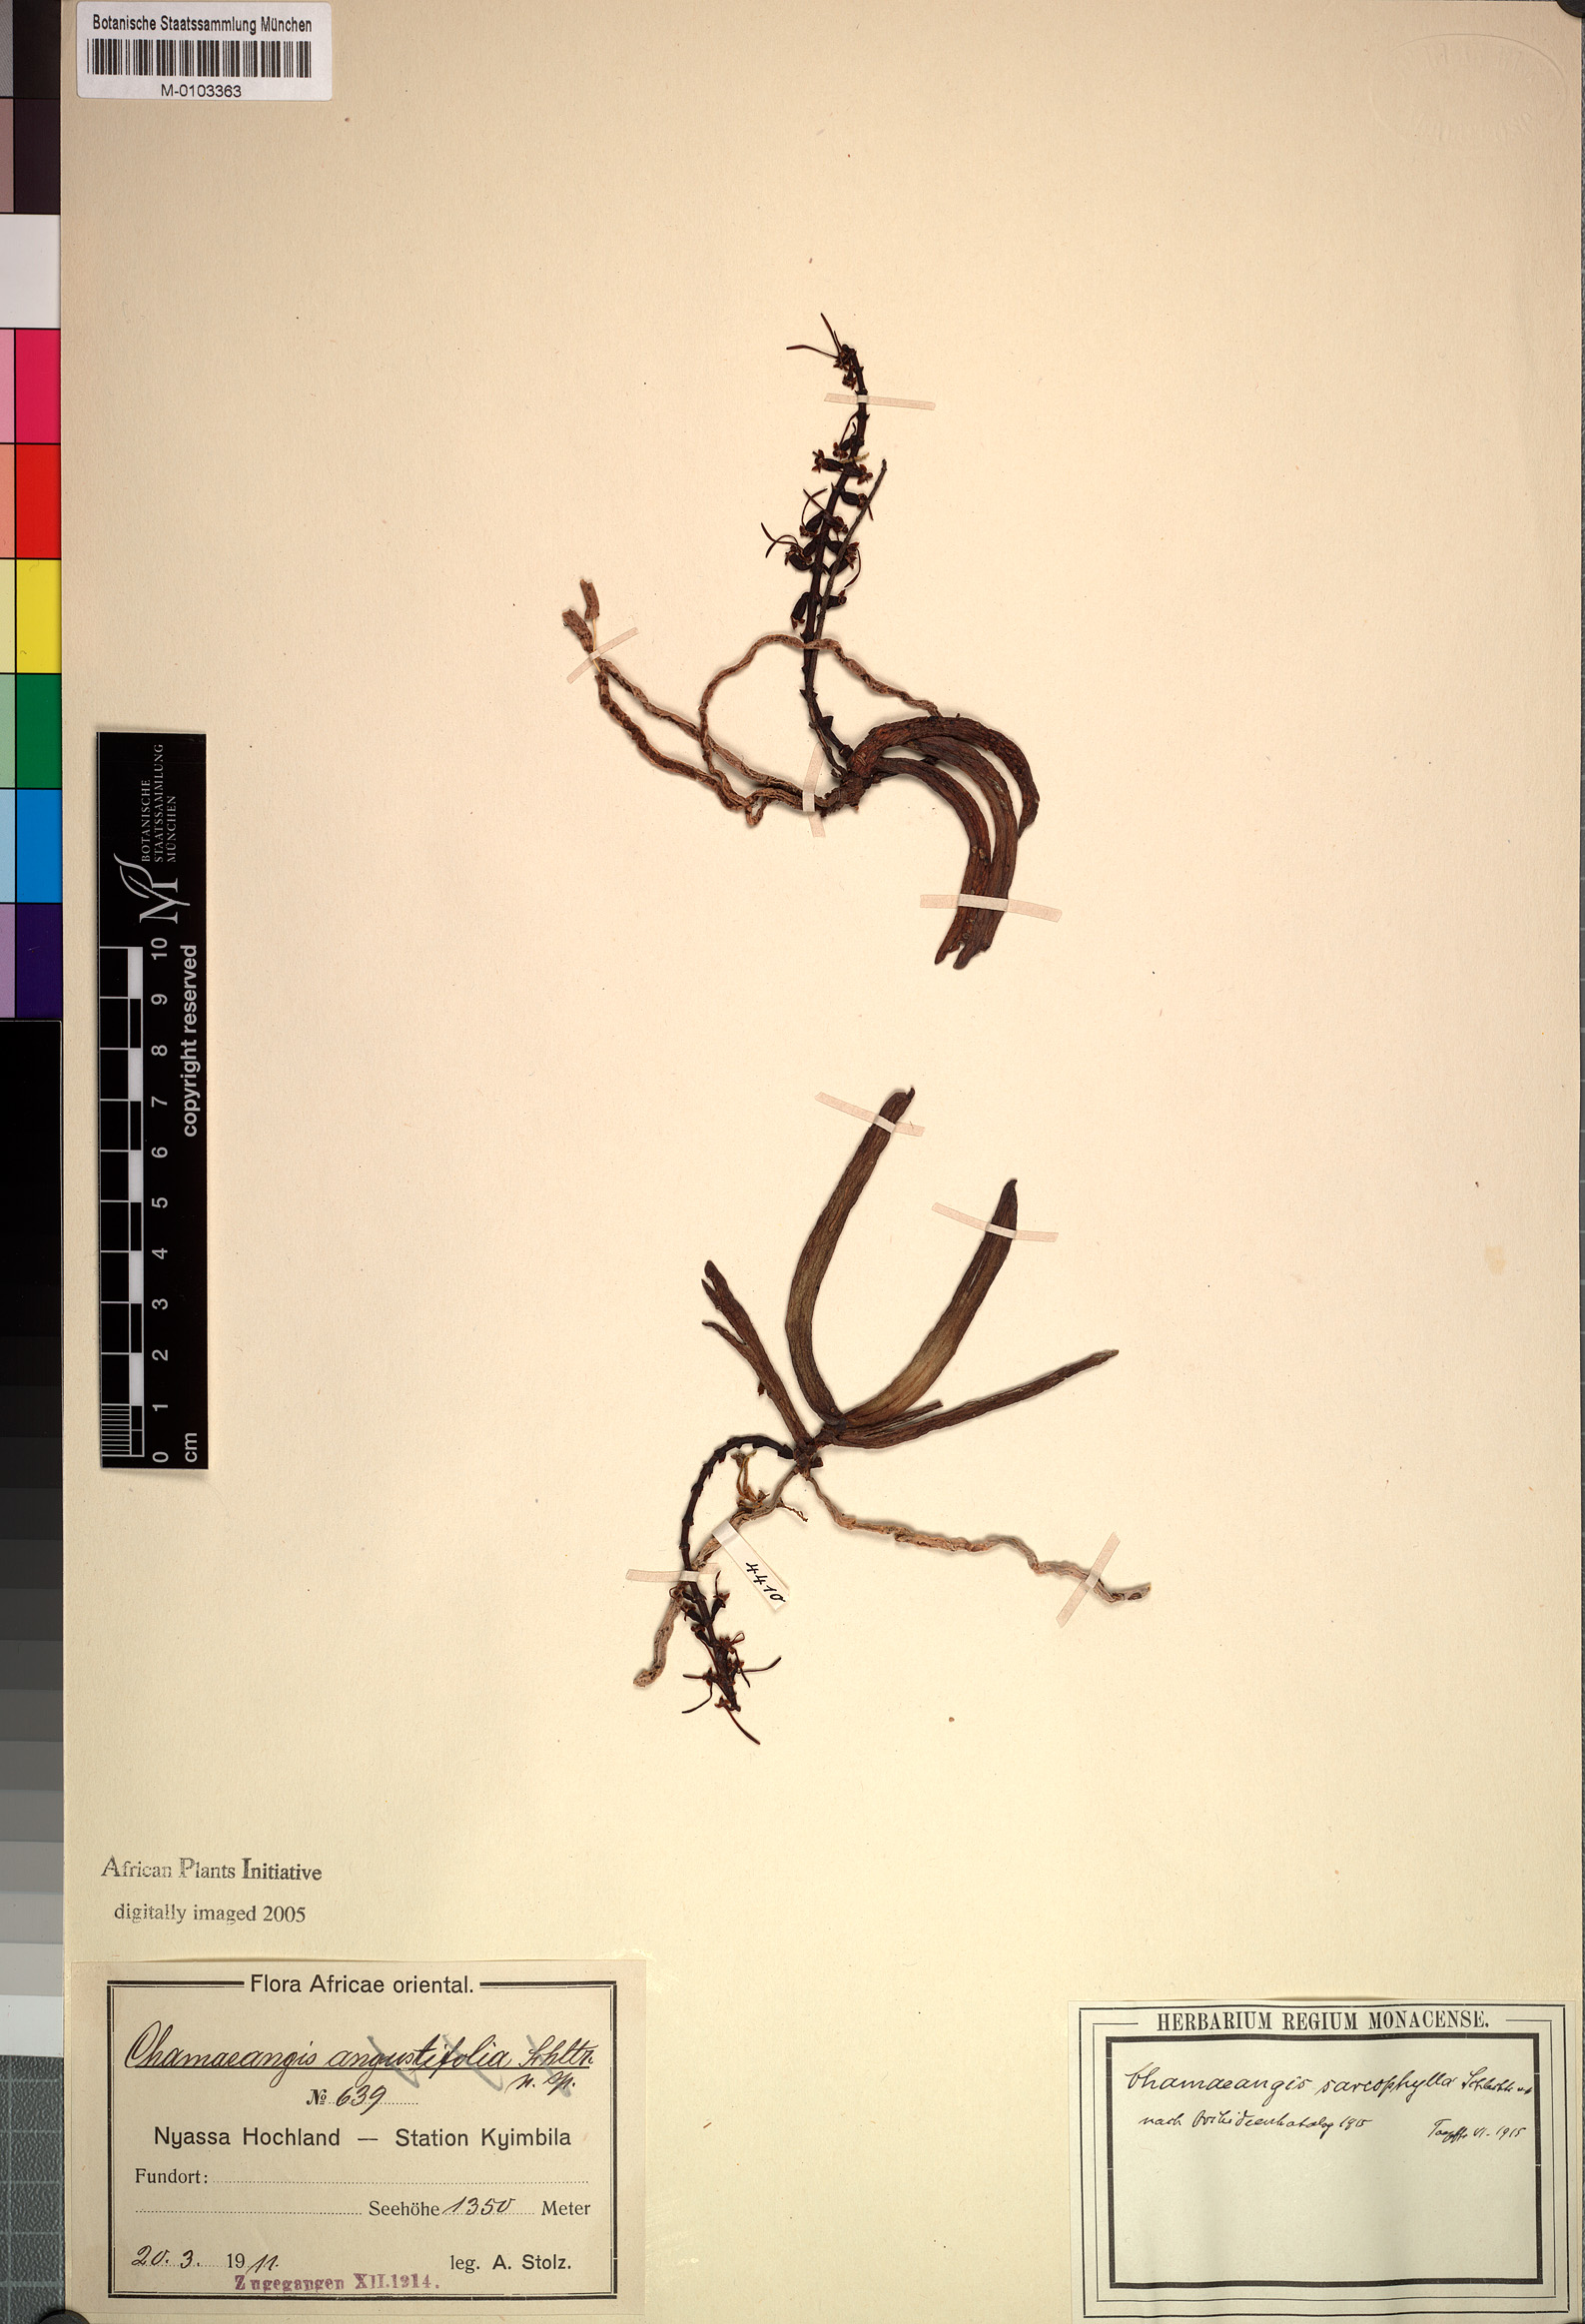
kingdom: Plantae
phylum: Tracheophyta
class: Liliopsida
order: Asparagales
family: Orchidaceae
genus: Diaphananthe
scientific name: Diaphananthe sarcophylla
